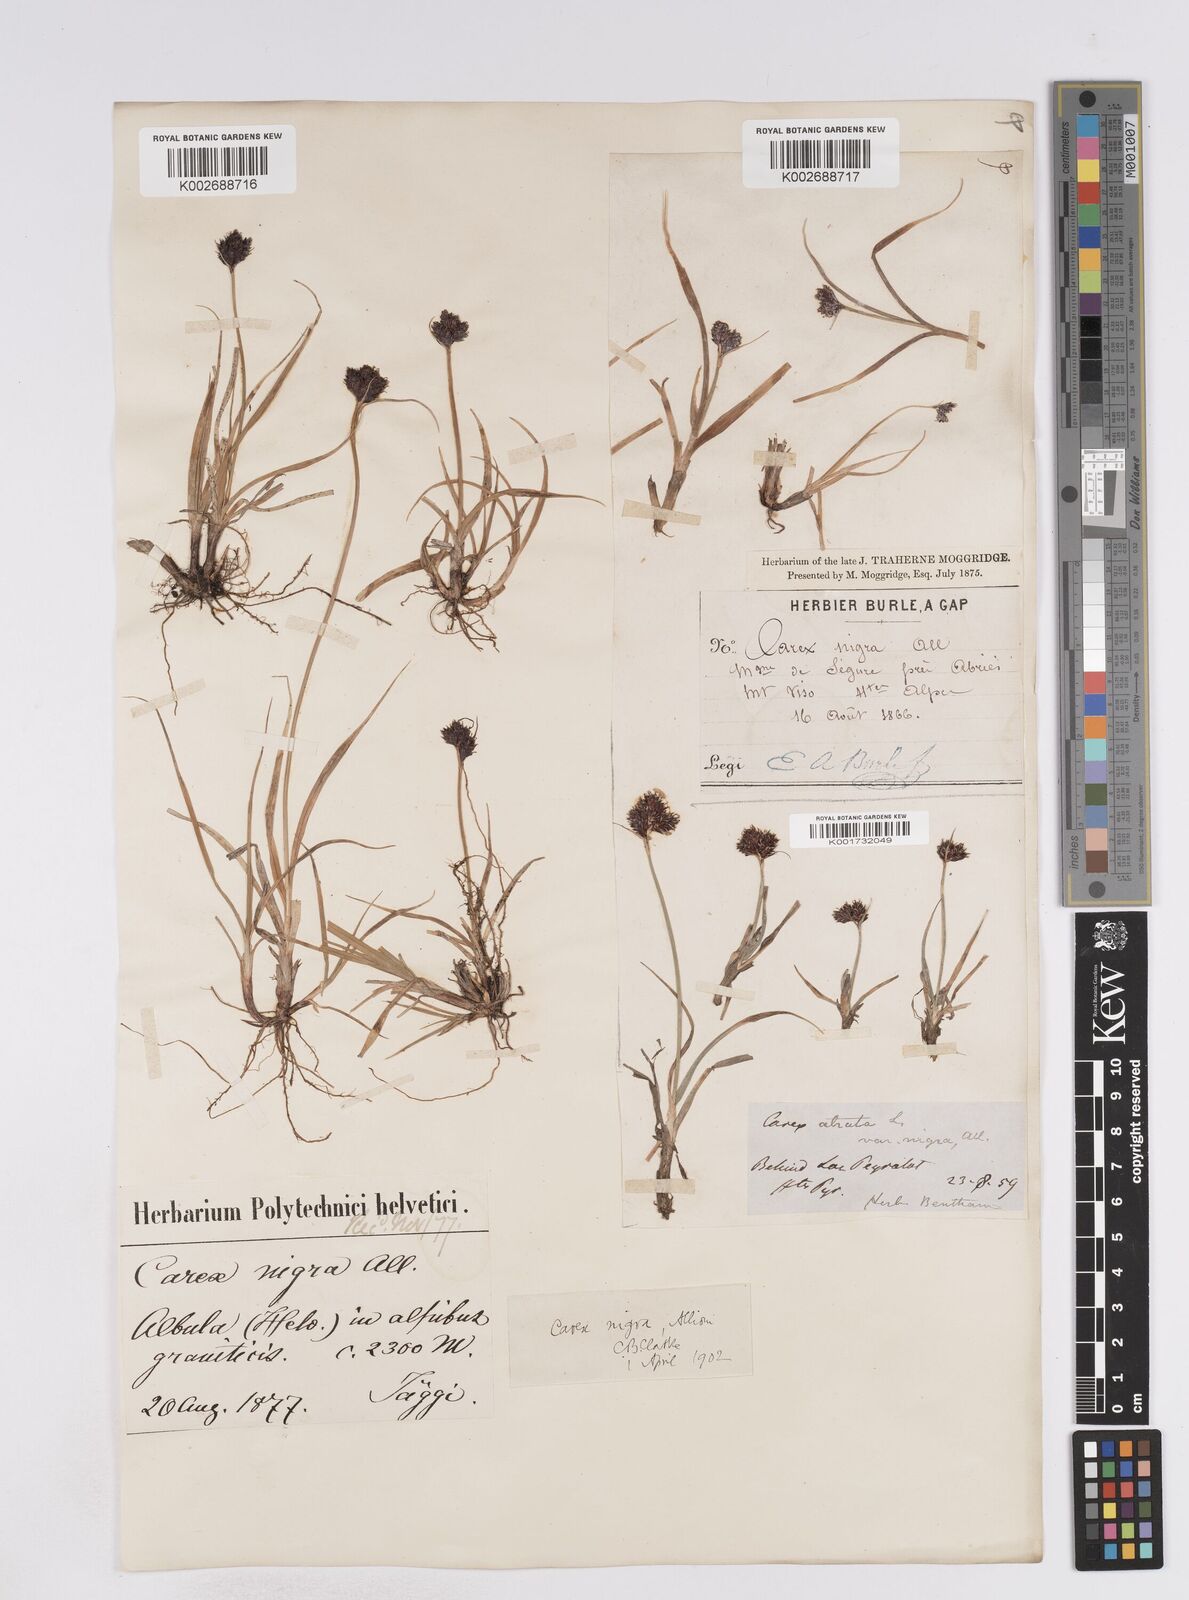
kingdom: Plantae
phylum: Tracheophyta
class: Liliopsida
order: Poales
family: Cyperaceae
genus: Carex
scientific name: Carex parviflora
